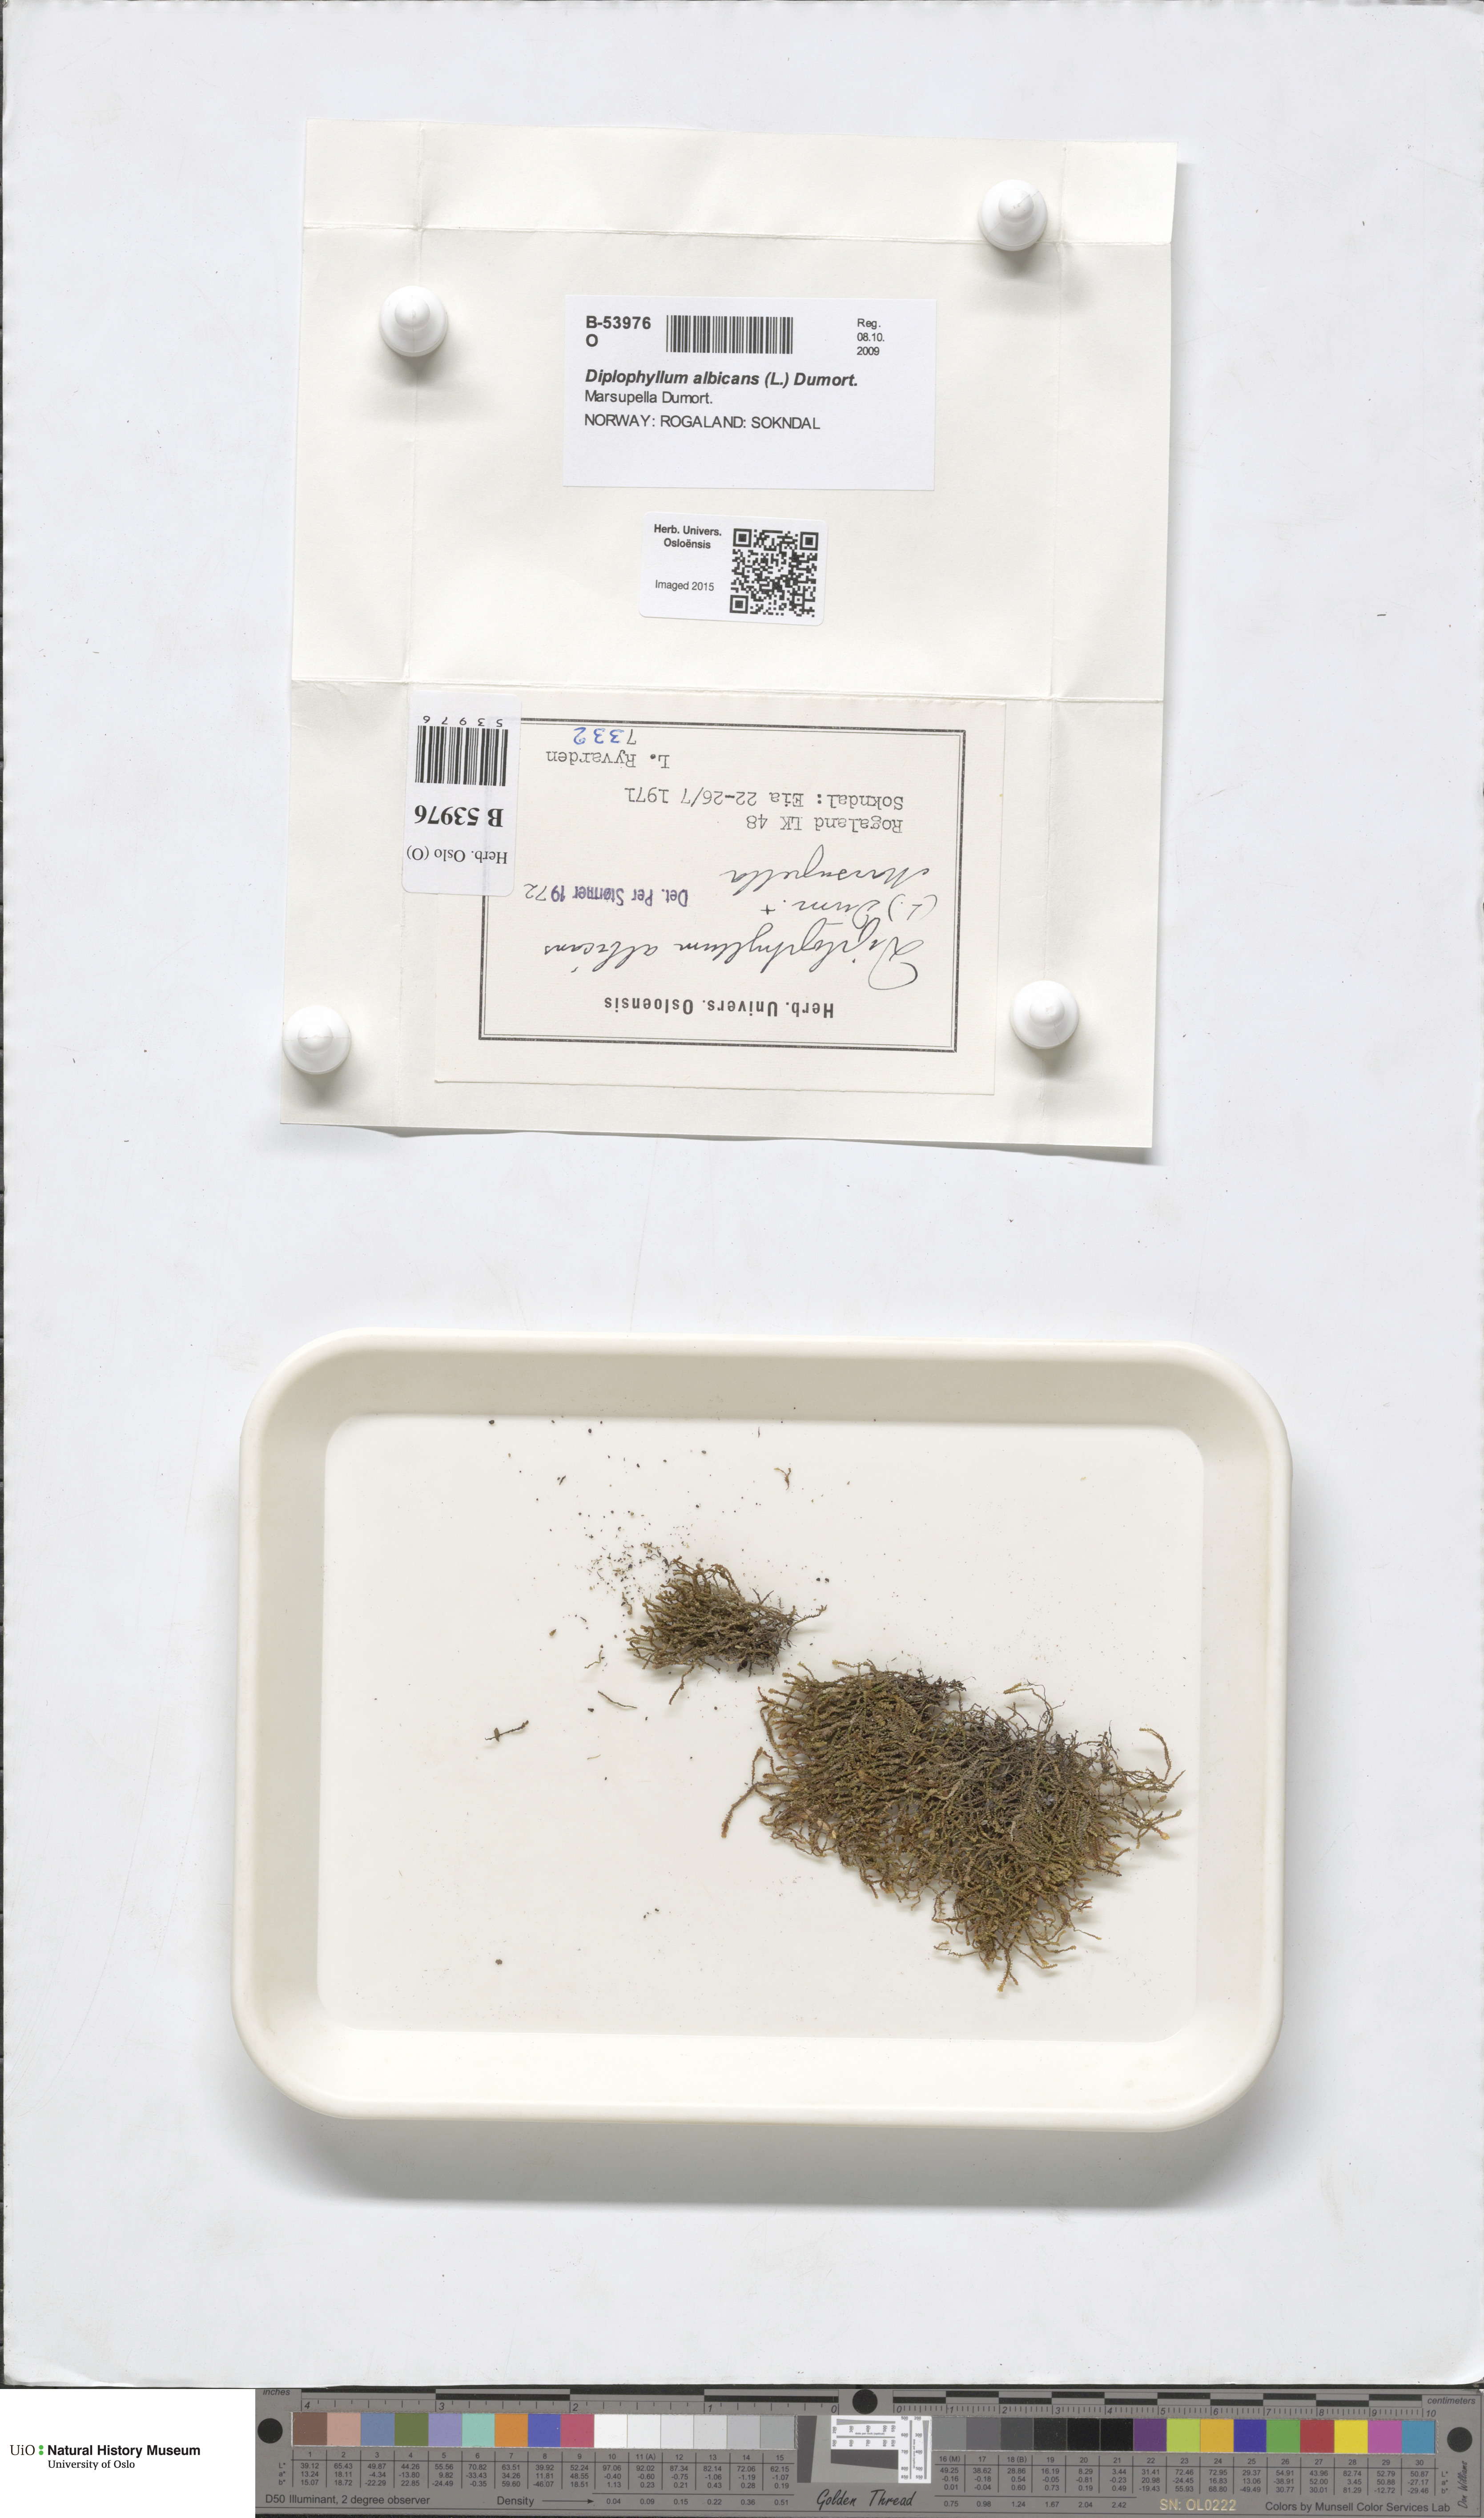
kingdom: Plantae
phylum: Marchantiophyta
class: Jungermanniopsida
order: Jungermanniales
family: Scapaniaceae
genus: Diplophyllum
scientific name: Diplophyllum albicans
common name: White earwort
